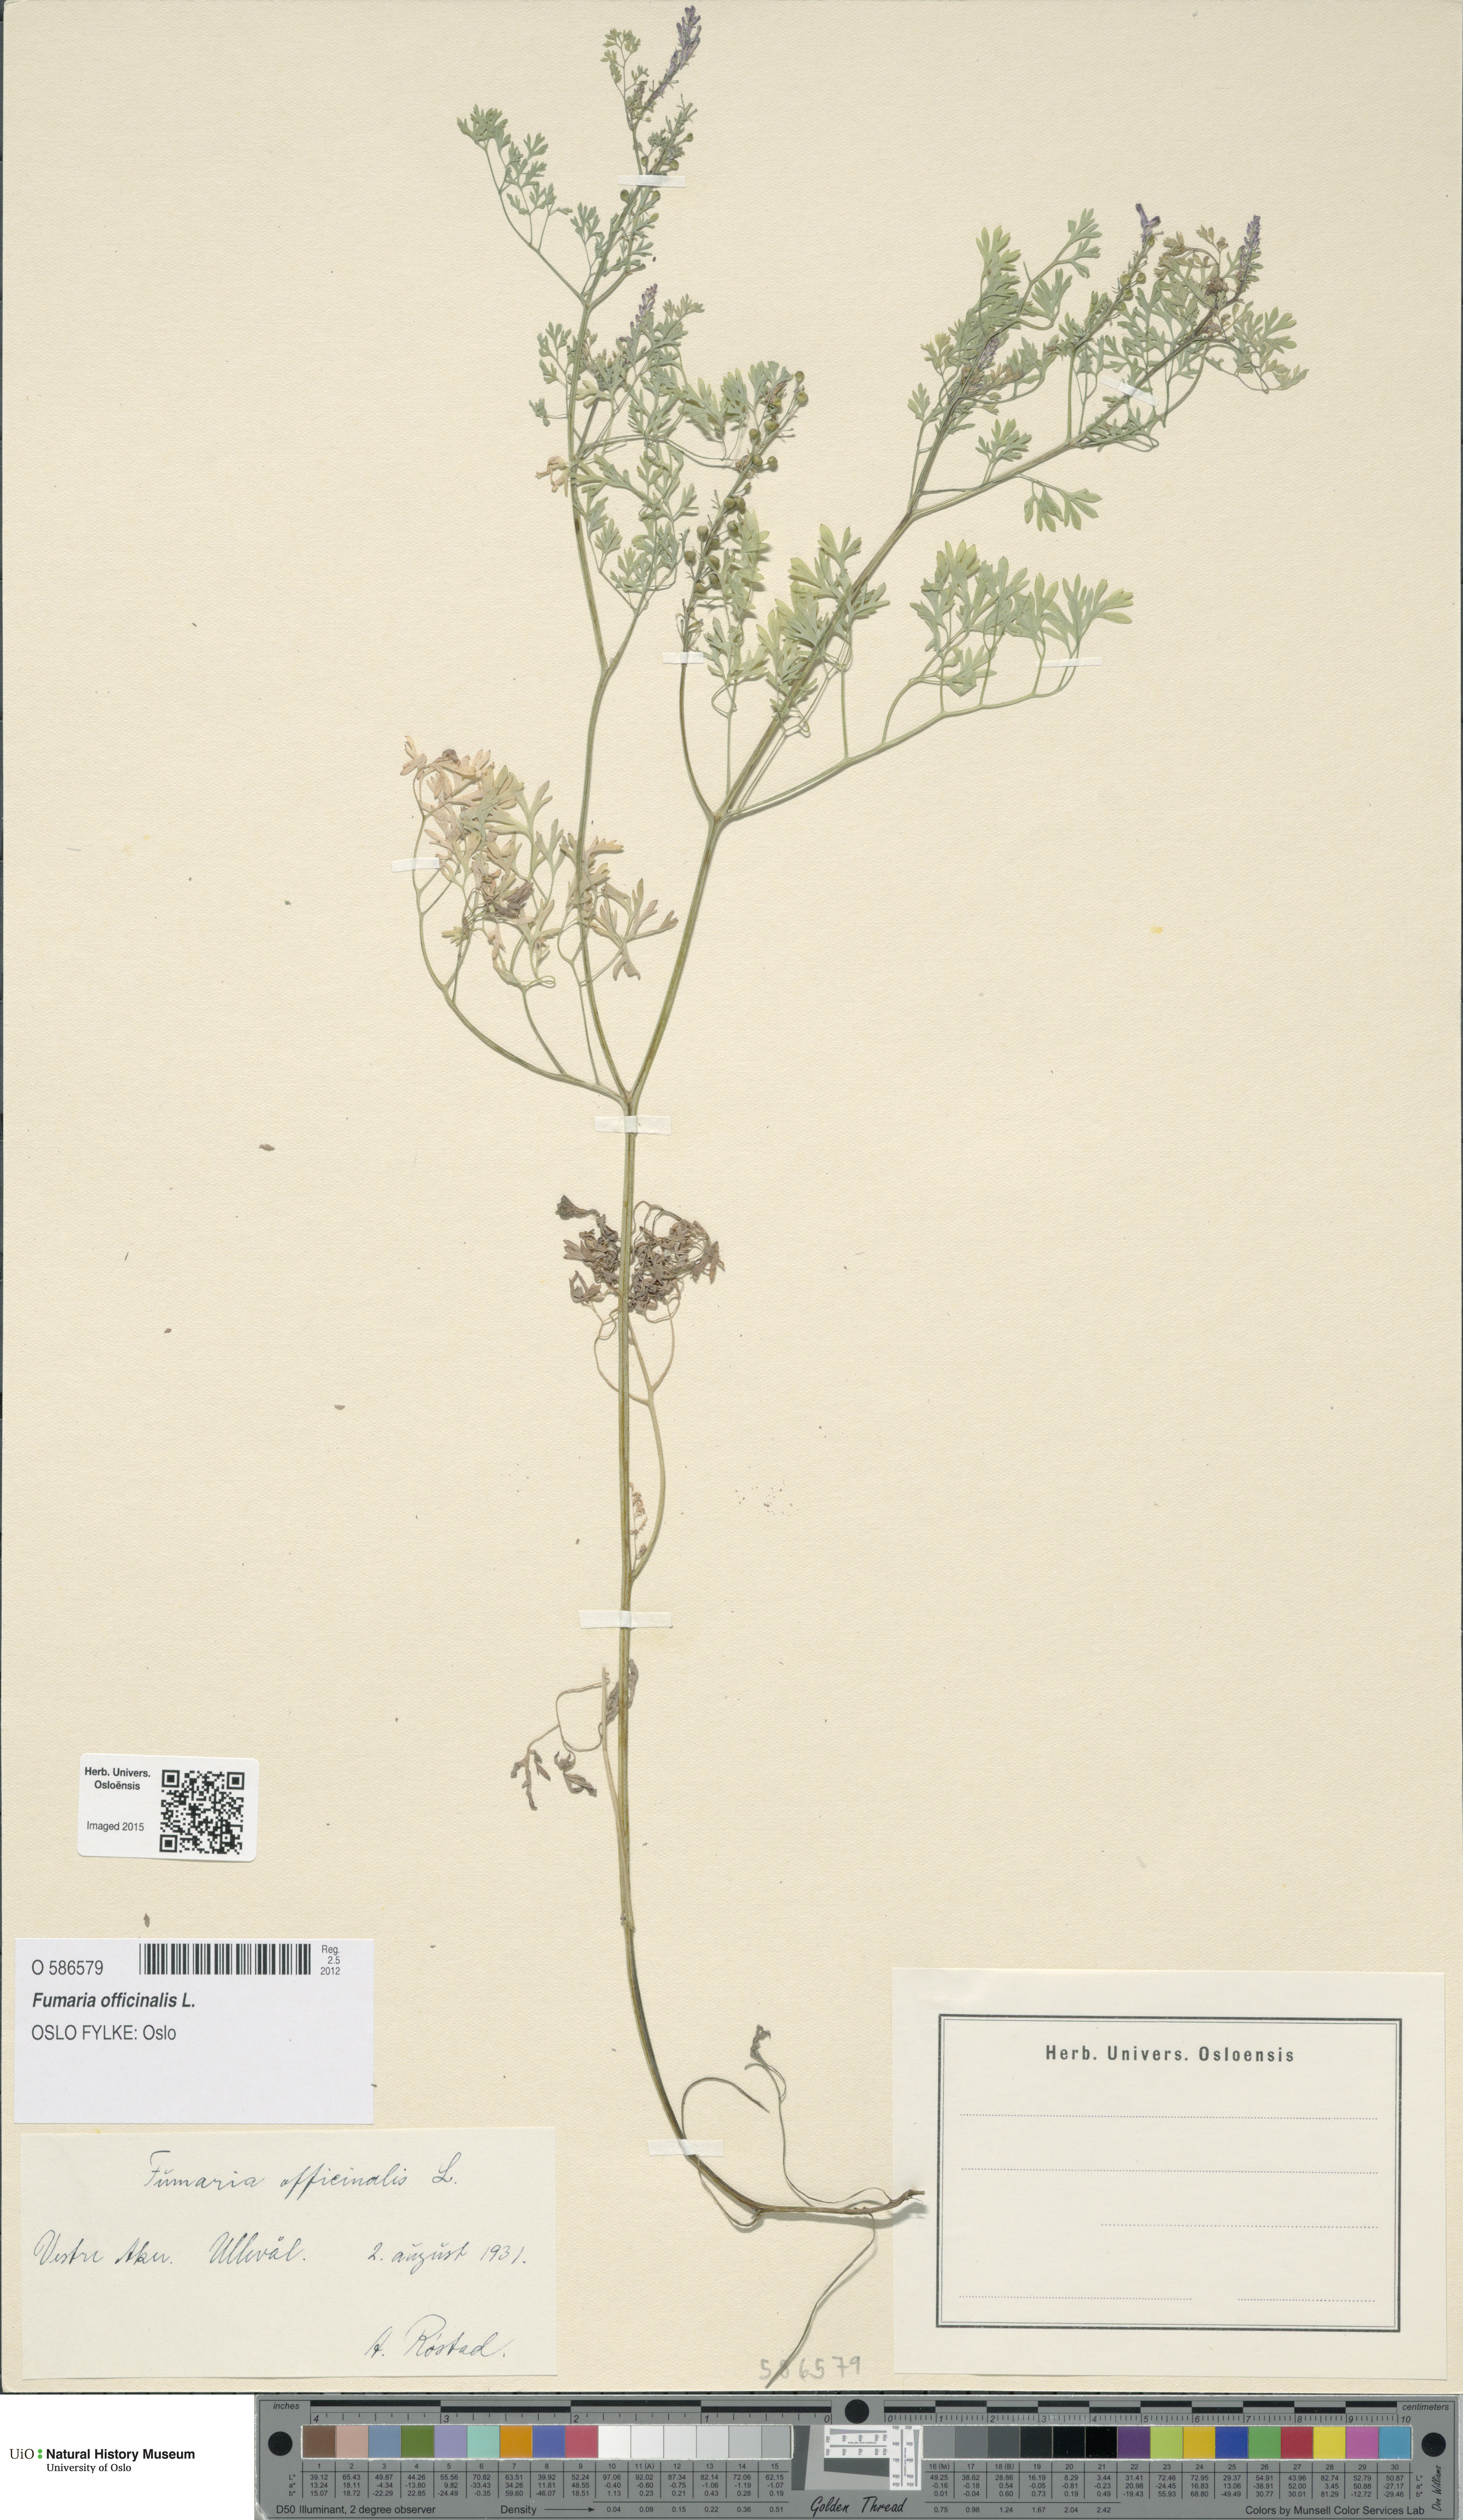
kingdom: Plantae
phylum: Tracheophyta
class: Magnoliopsida
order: Ranunculales
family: Papaveraceae
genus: Fumaria
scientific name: Fumaria officinalis
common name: Common fumitory
